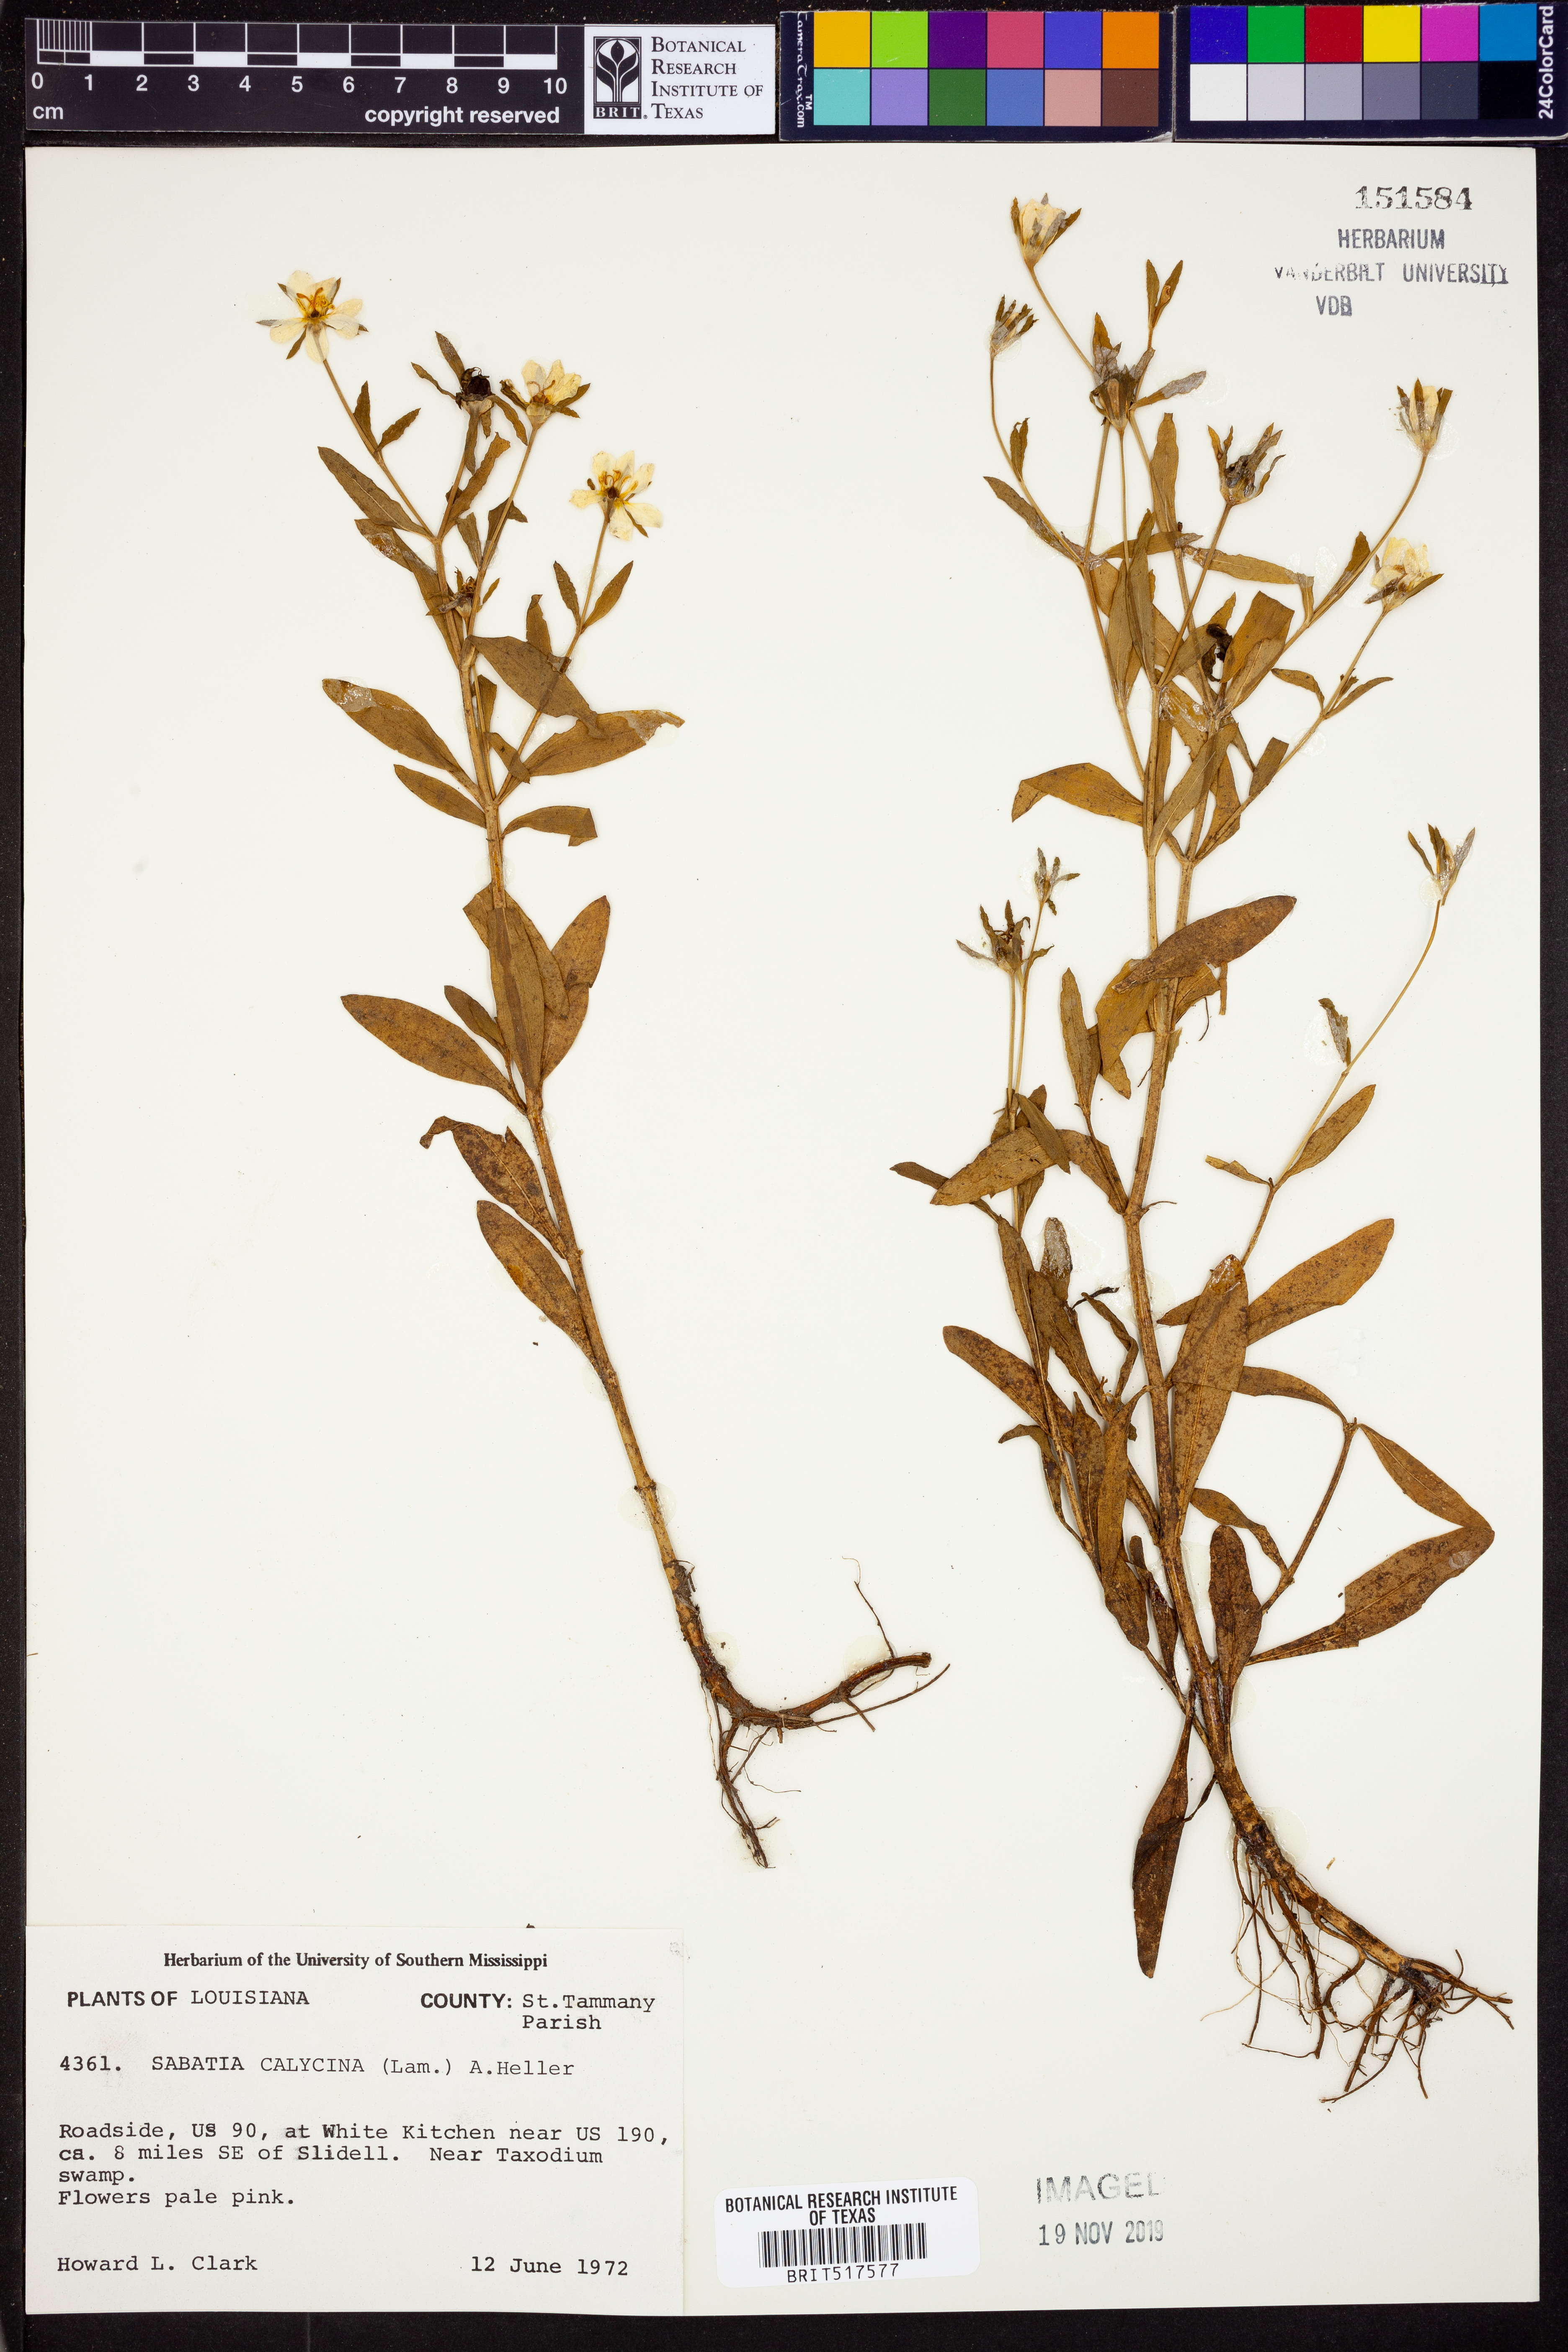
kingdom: Plantae
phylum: Tracheophyta
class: Magnoliopsida
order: Gentianales
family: Gentianaceae
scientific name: Gentianaceae
